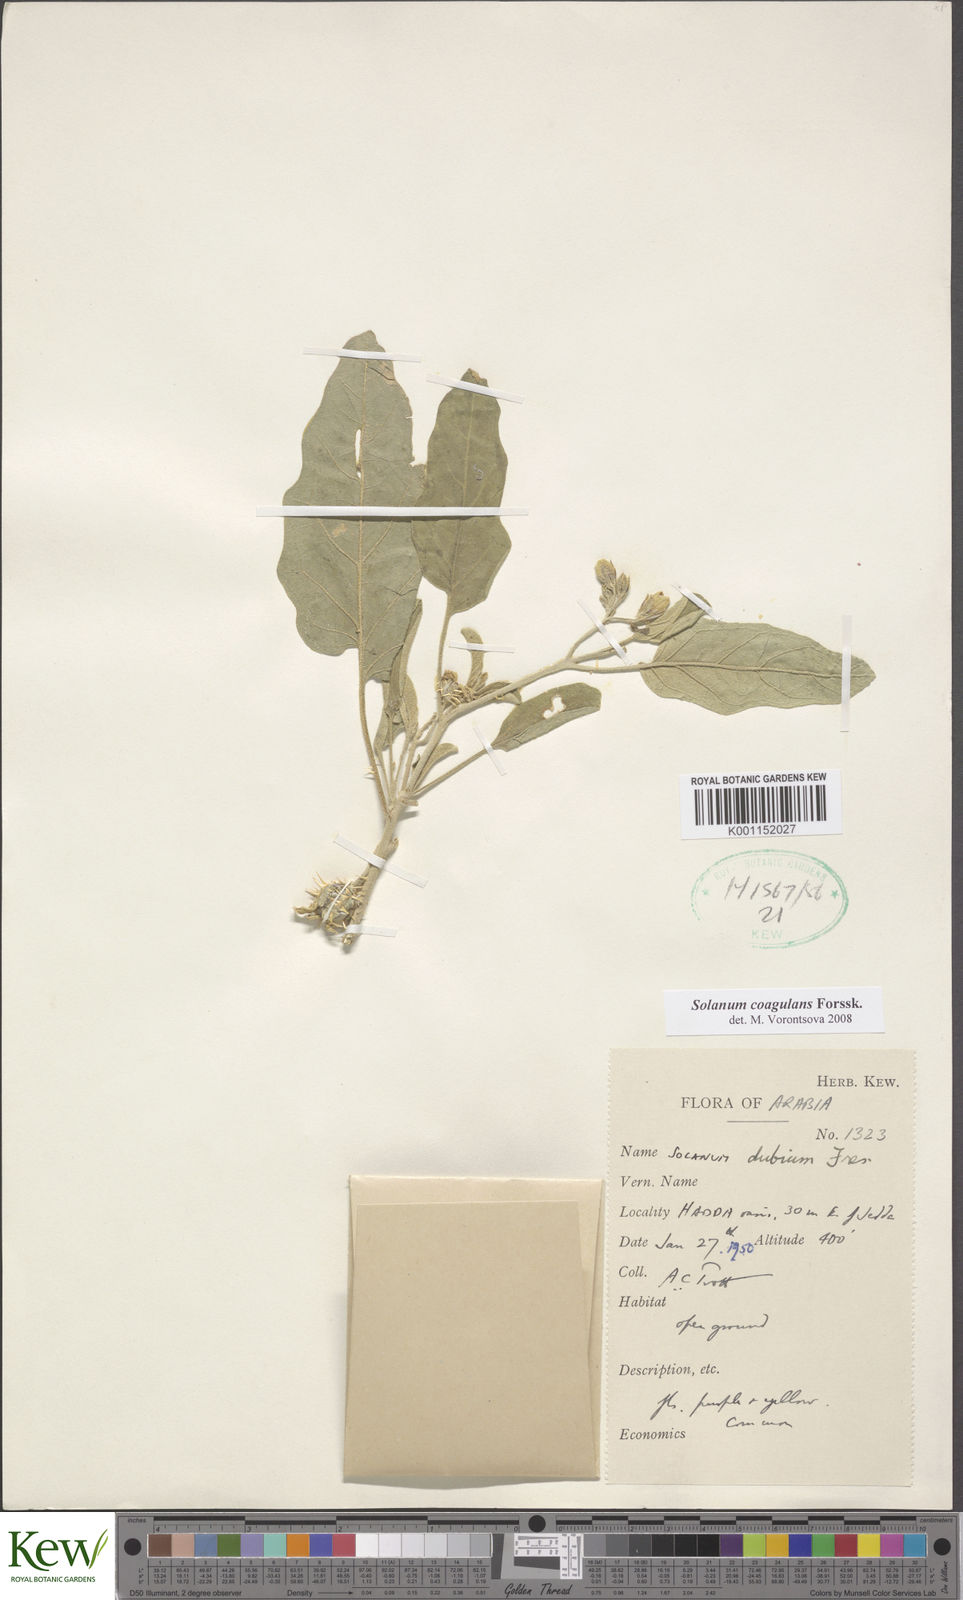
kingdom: Plantae
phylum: Tracheophyta
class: Magnoliopsida
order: Solanales
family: Solanaceae
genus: Solanum
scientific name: Solanum coagulans
